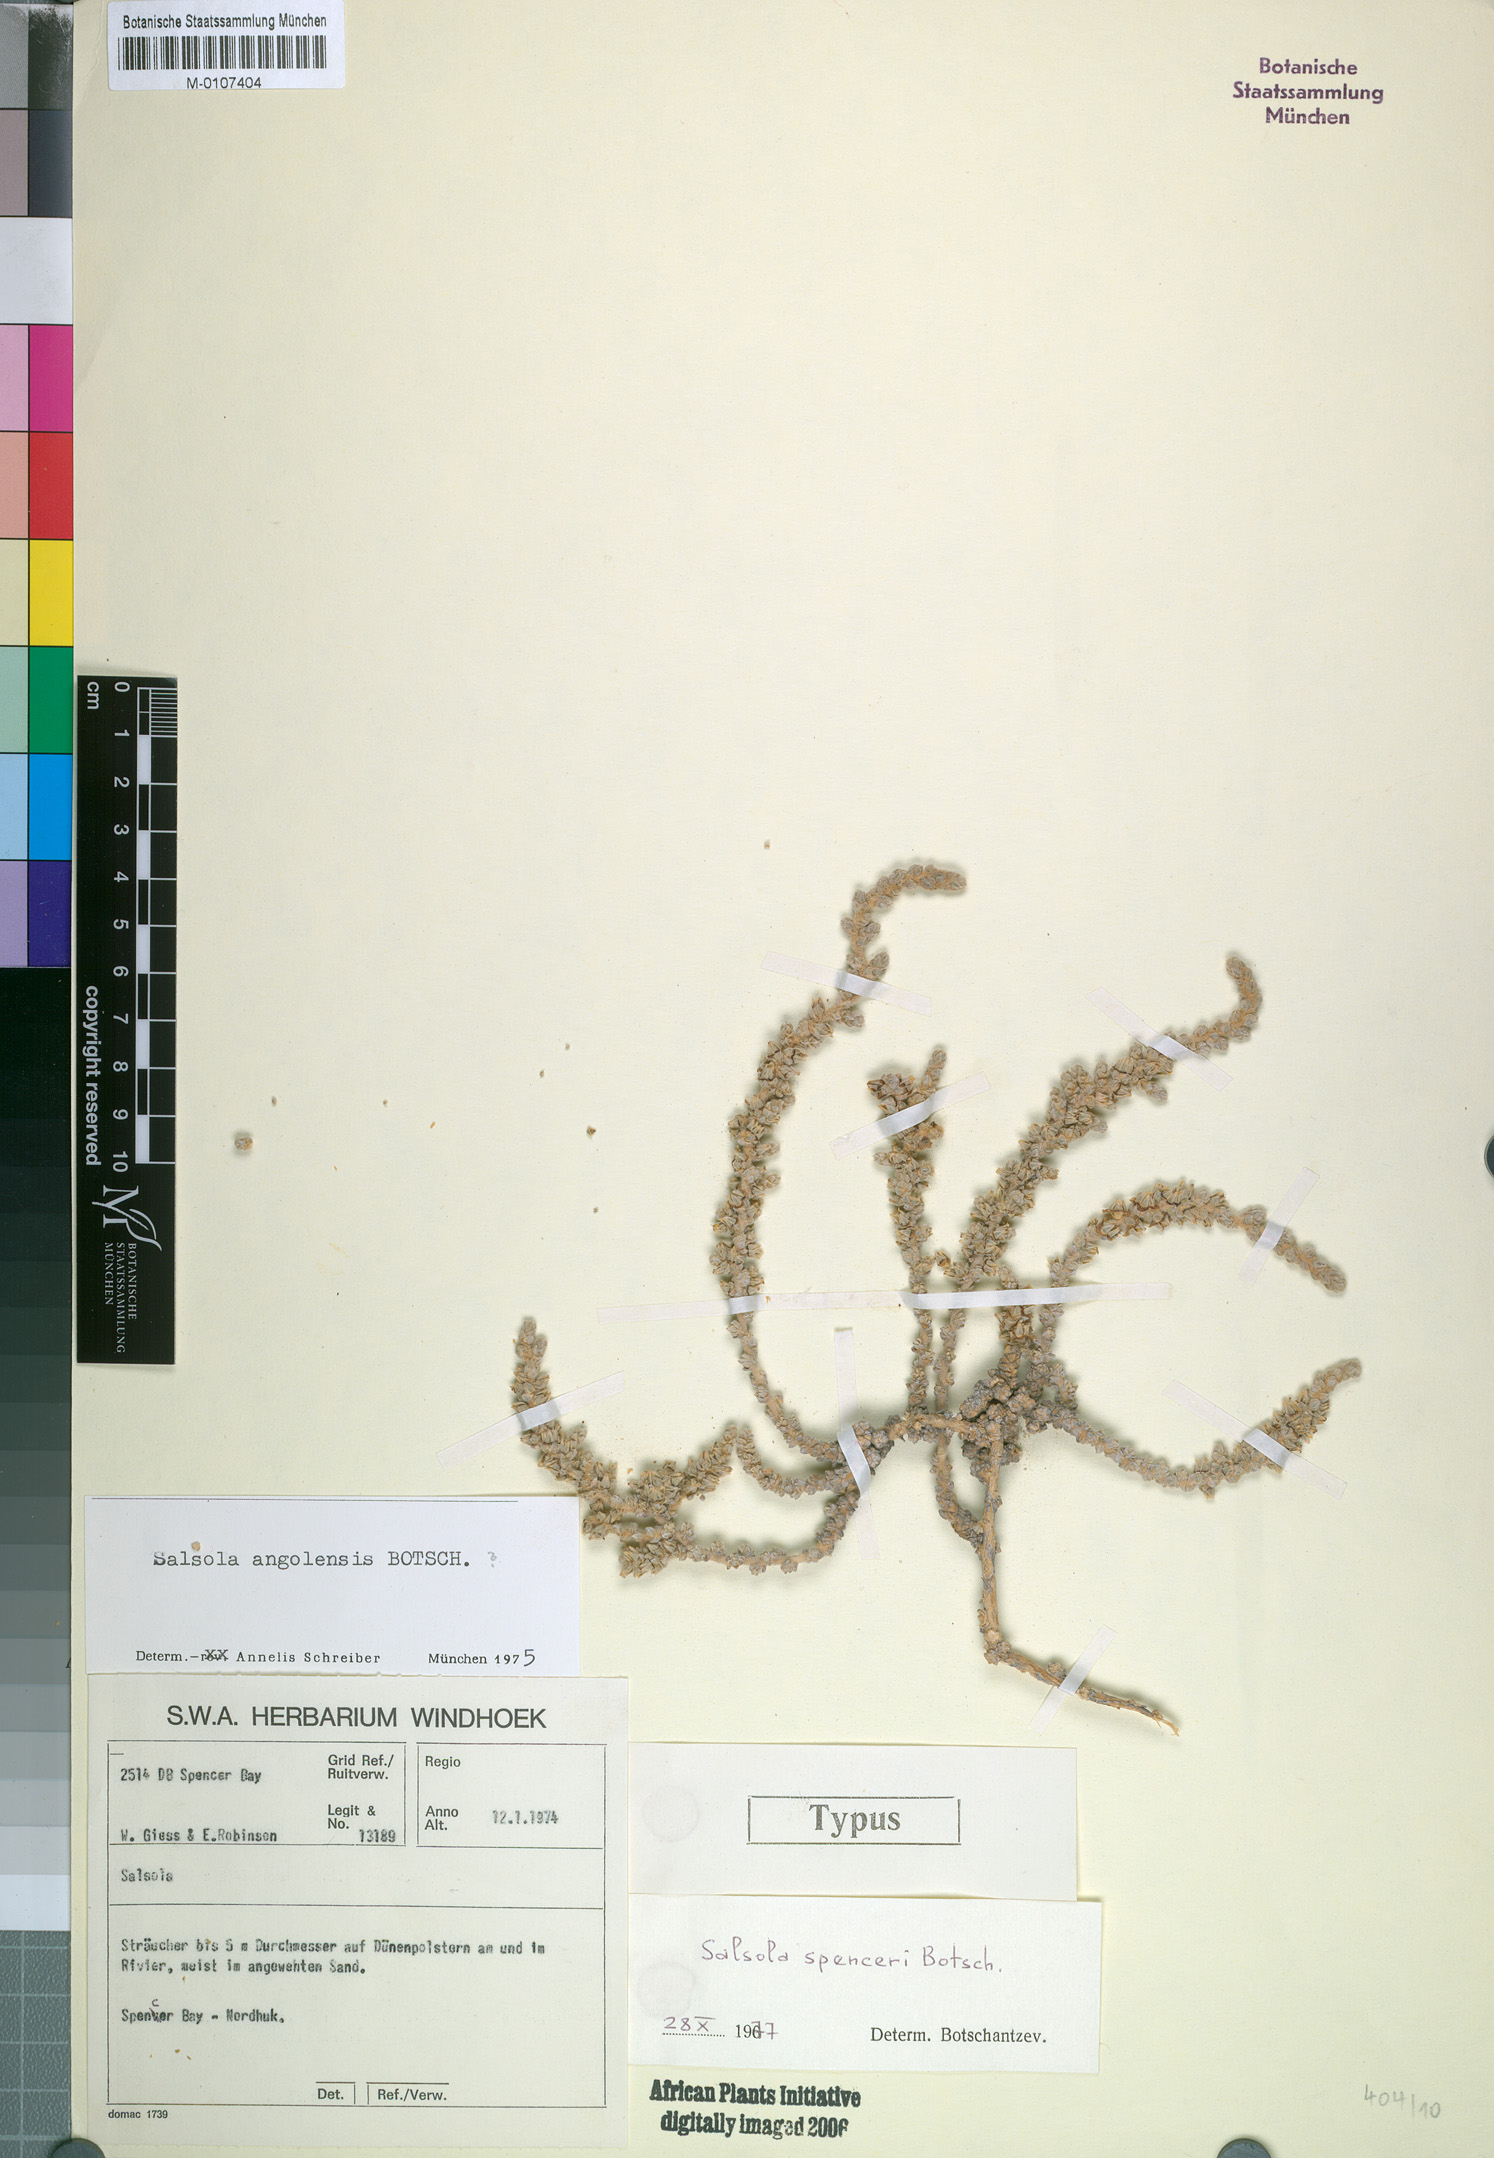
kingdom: Plantae
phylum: Tracheophyta
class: Magnoliopsida
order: Caryophyllales
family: Amaranthaceae
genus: Caroxylon
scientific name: Caroxylon spenceri
